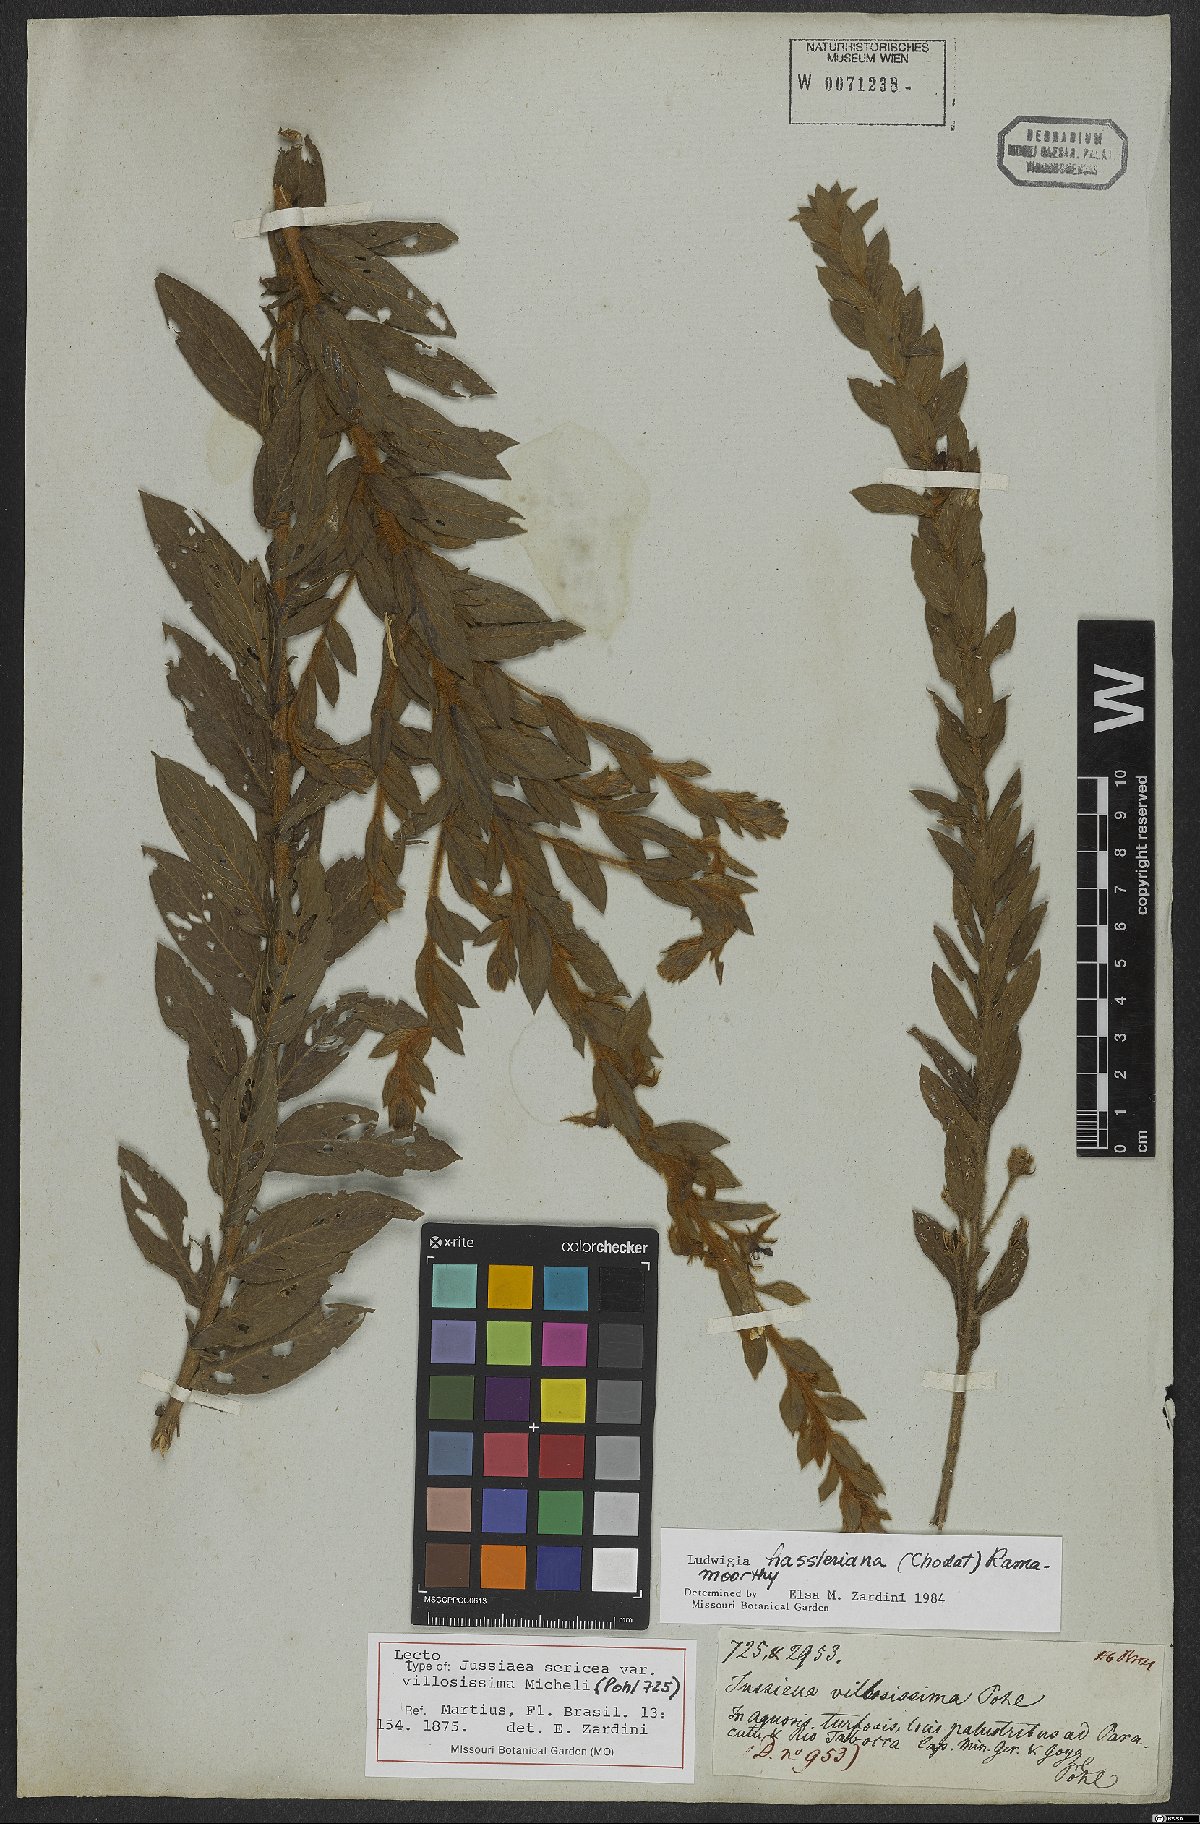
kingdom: Plantae
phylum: Tracheophyta
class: Magnoliopsida
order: Myrtales
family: Onagraceae
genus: Ludwigia
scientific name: Ludwigia hassleriana
